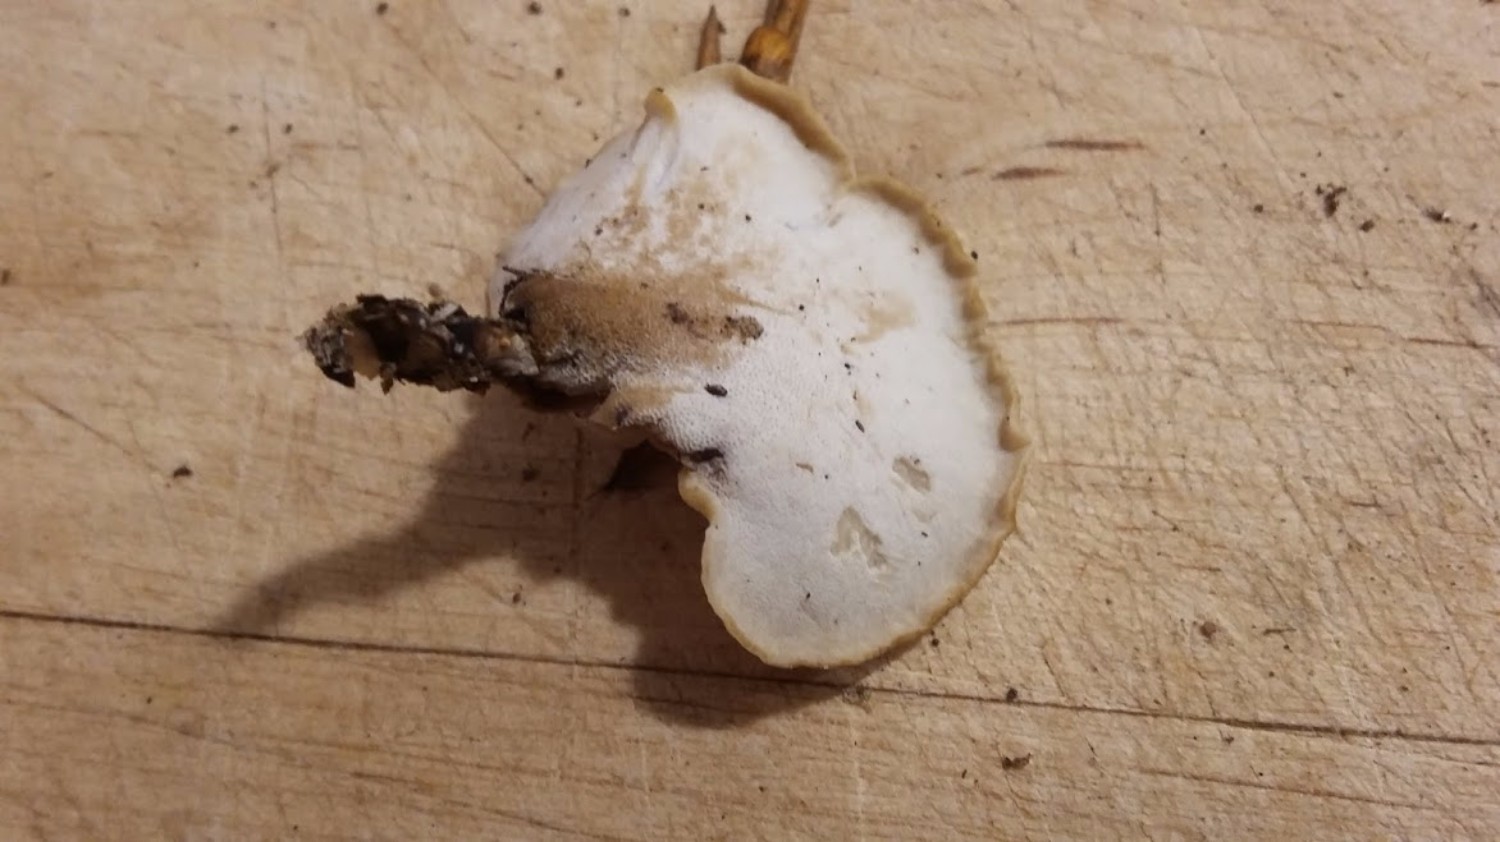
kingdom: Fungi
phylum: Basidiomycota
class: Agaricomycetes
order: Polyporales
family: Polyporaceae
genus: Cerioporus
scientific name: Cerioporus varius
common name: foranderlig stilkporesvamp
